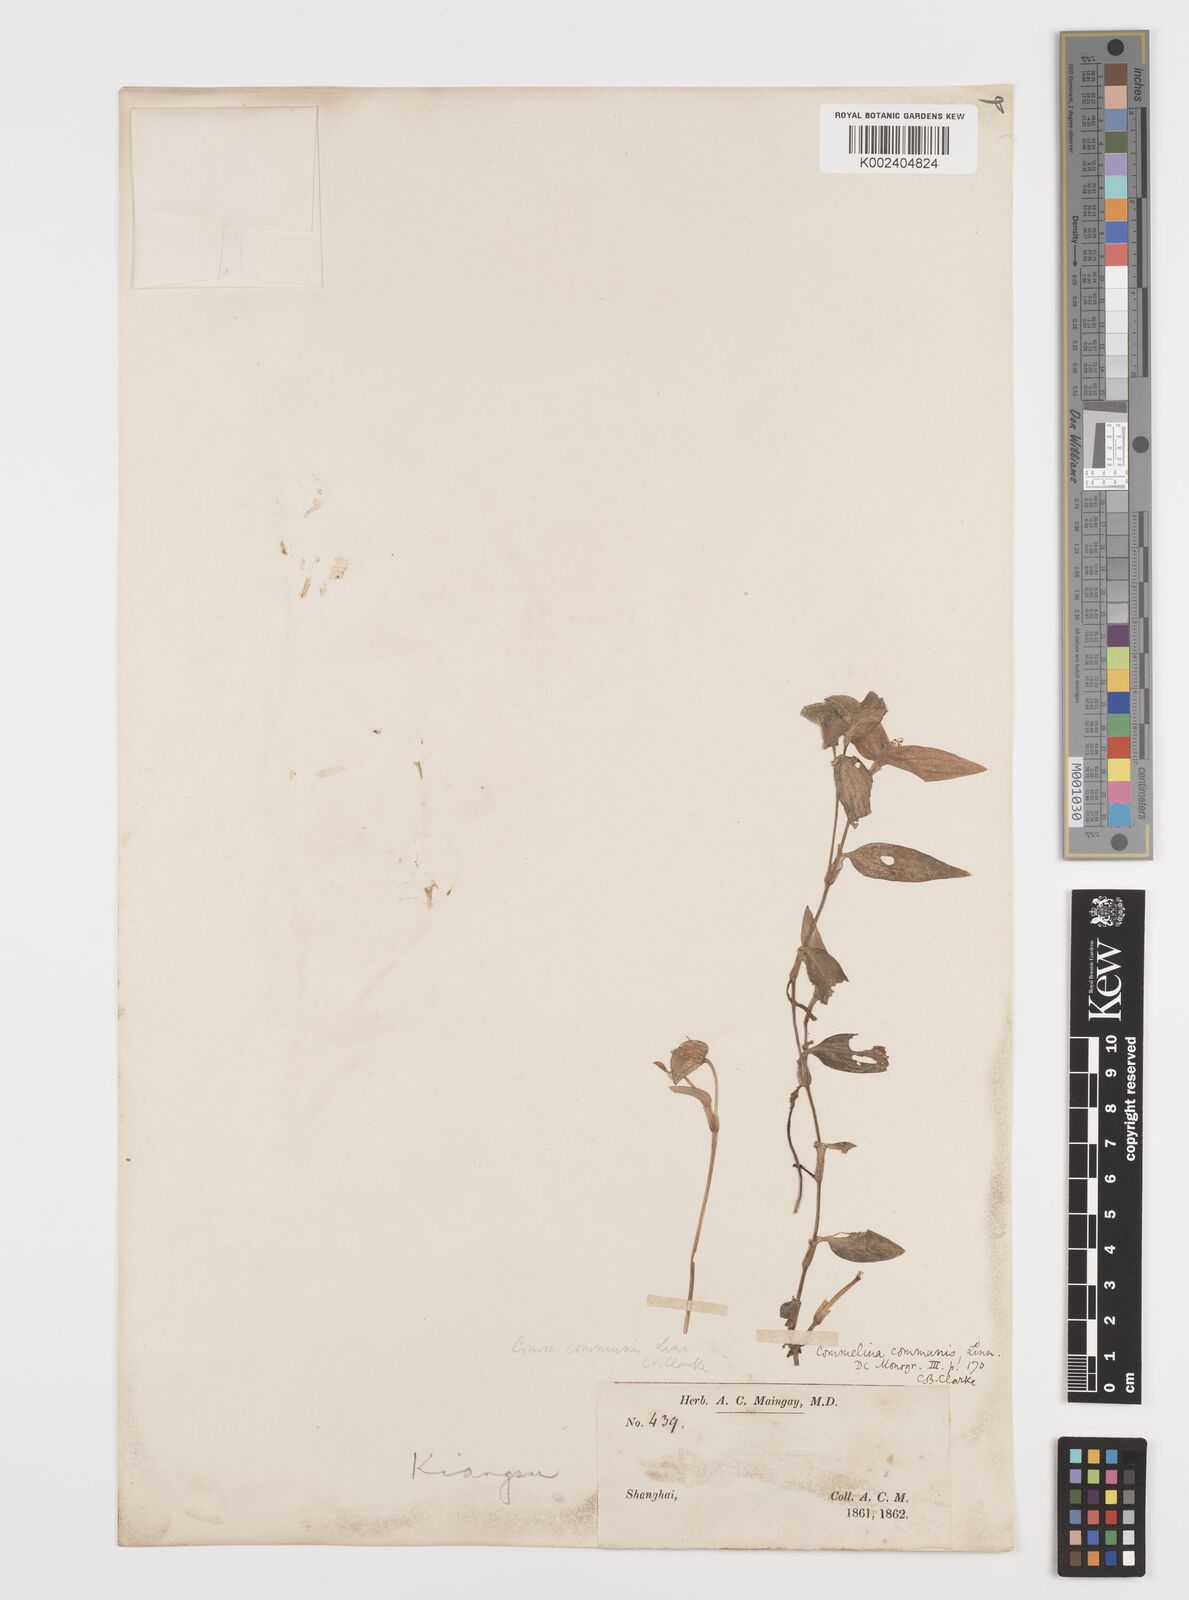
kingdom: Plantae
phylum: Tracheophyta
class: Liliopsida
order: Commelinales
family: Commelinaceae
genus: Commelina
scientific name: Commelina communis
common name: Asiatic dayflower
